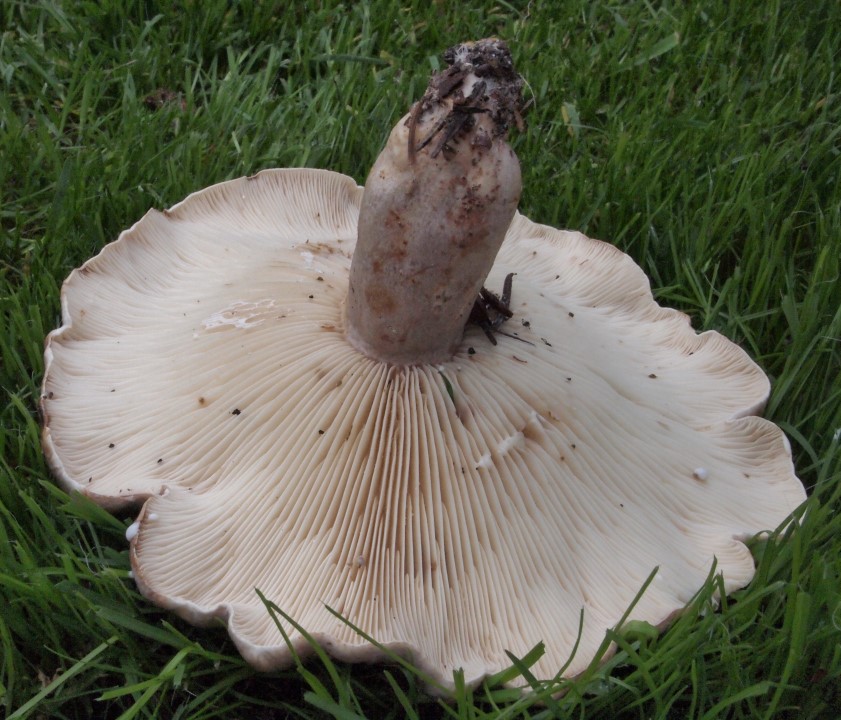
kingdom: Fungi
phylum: Basidiomycota
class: Agaricomycetes
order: Russulales
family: Russulaceae
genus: Lactarius
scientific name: Lactarius fluens
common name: lysrandet mælkehat
